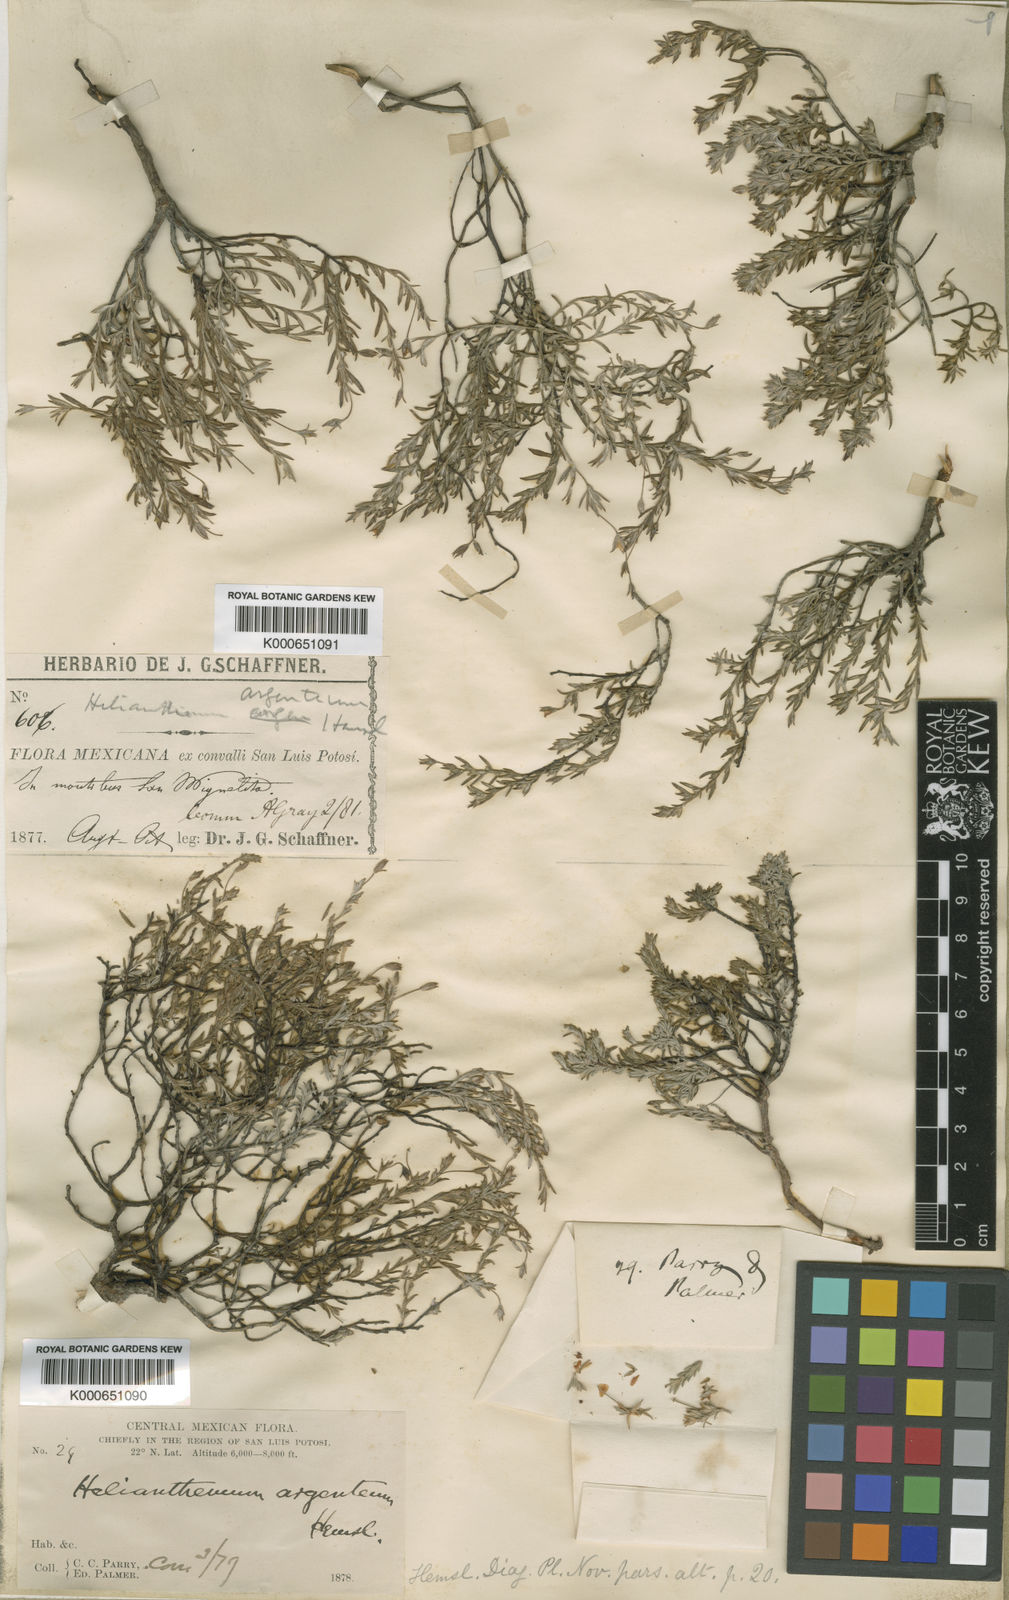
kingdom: Plantae
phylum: Tracheophyta
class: Magnoliopsida
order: Malvales
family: Cistaceae
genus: Crocanthemum
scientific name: Crocanthemum argenteum
